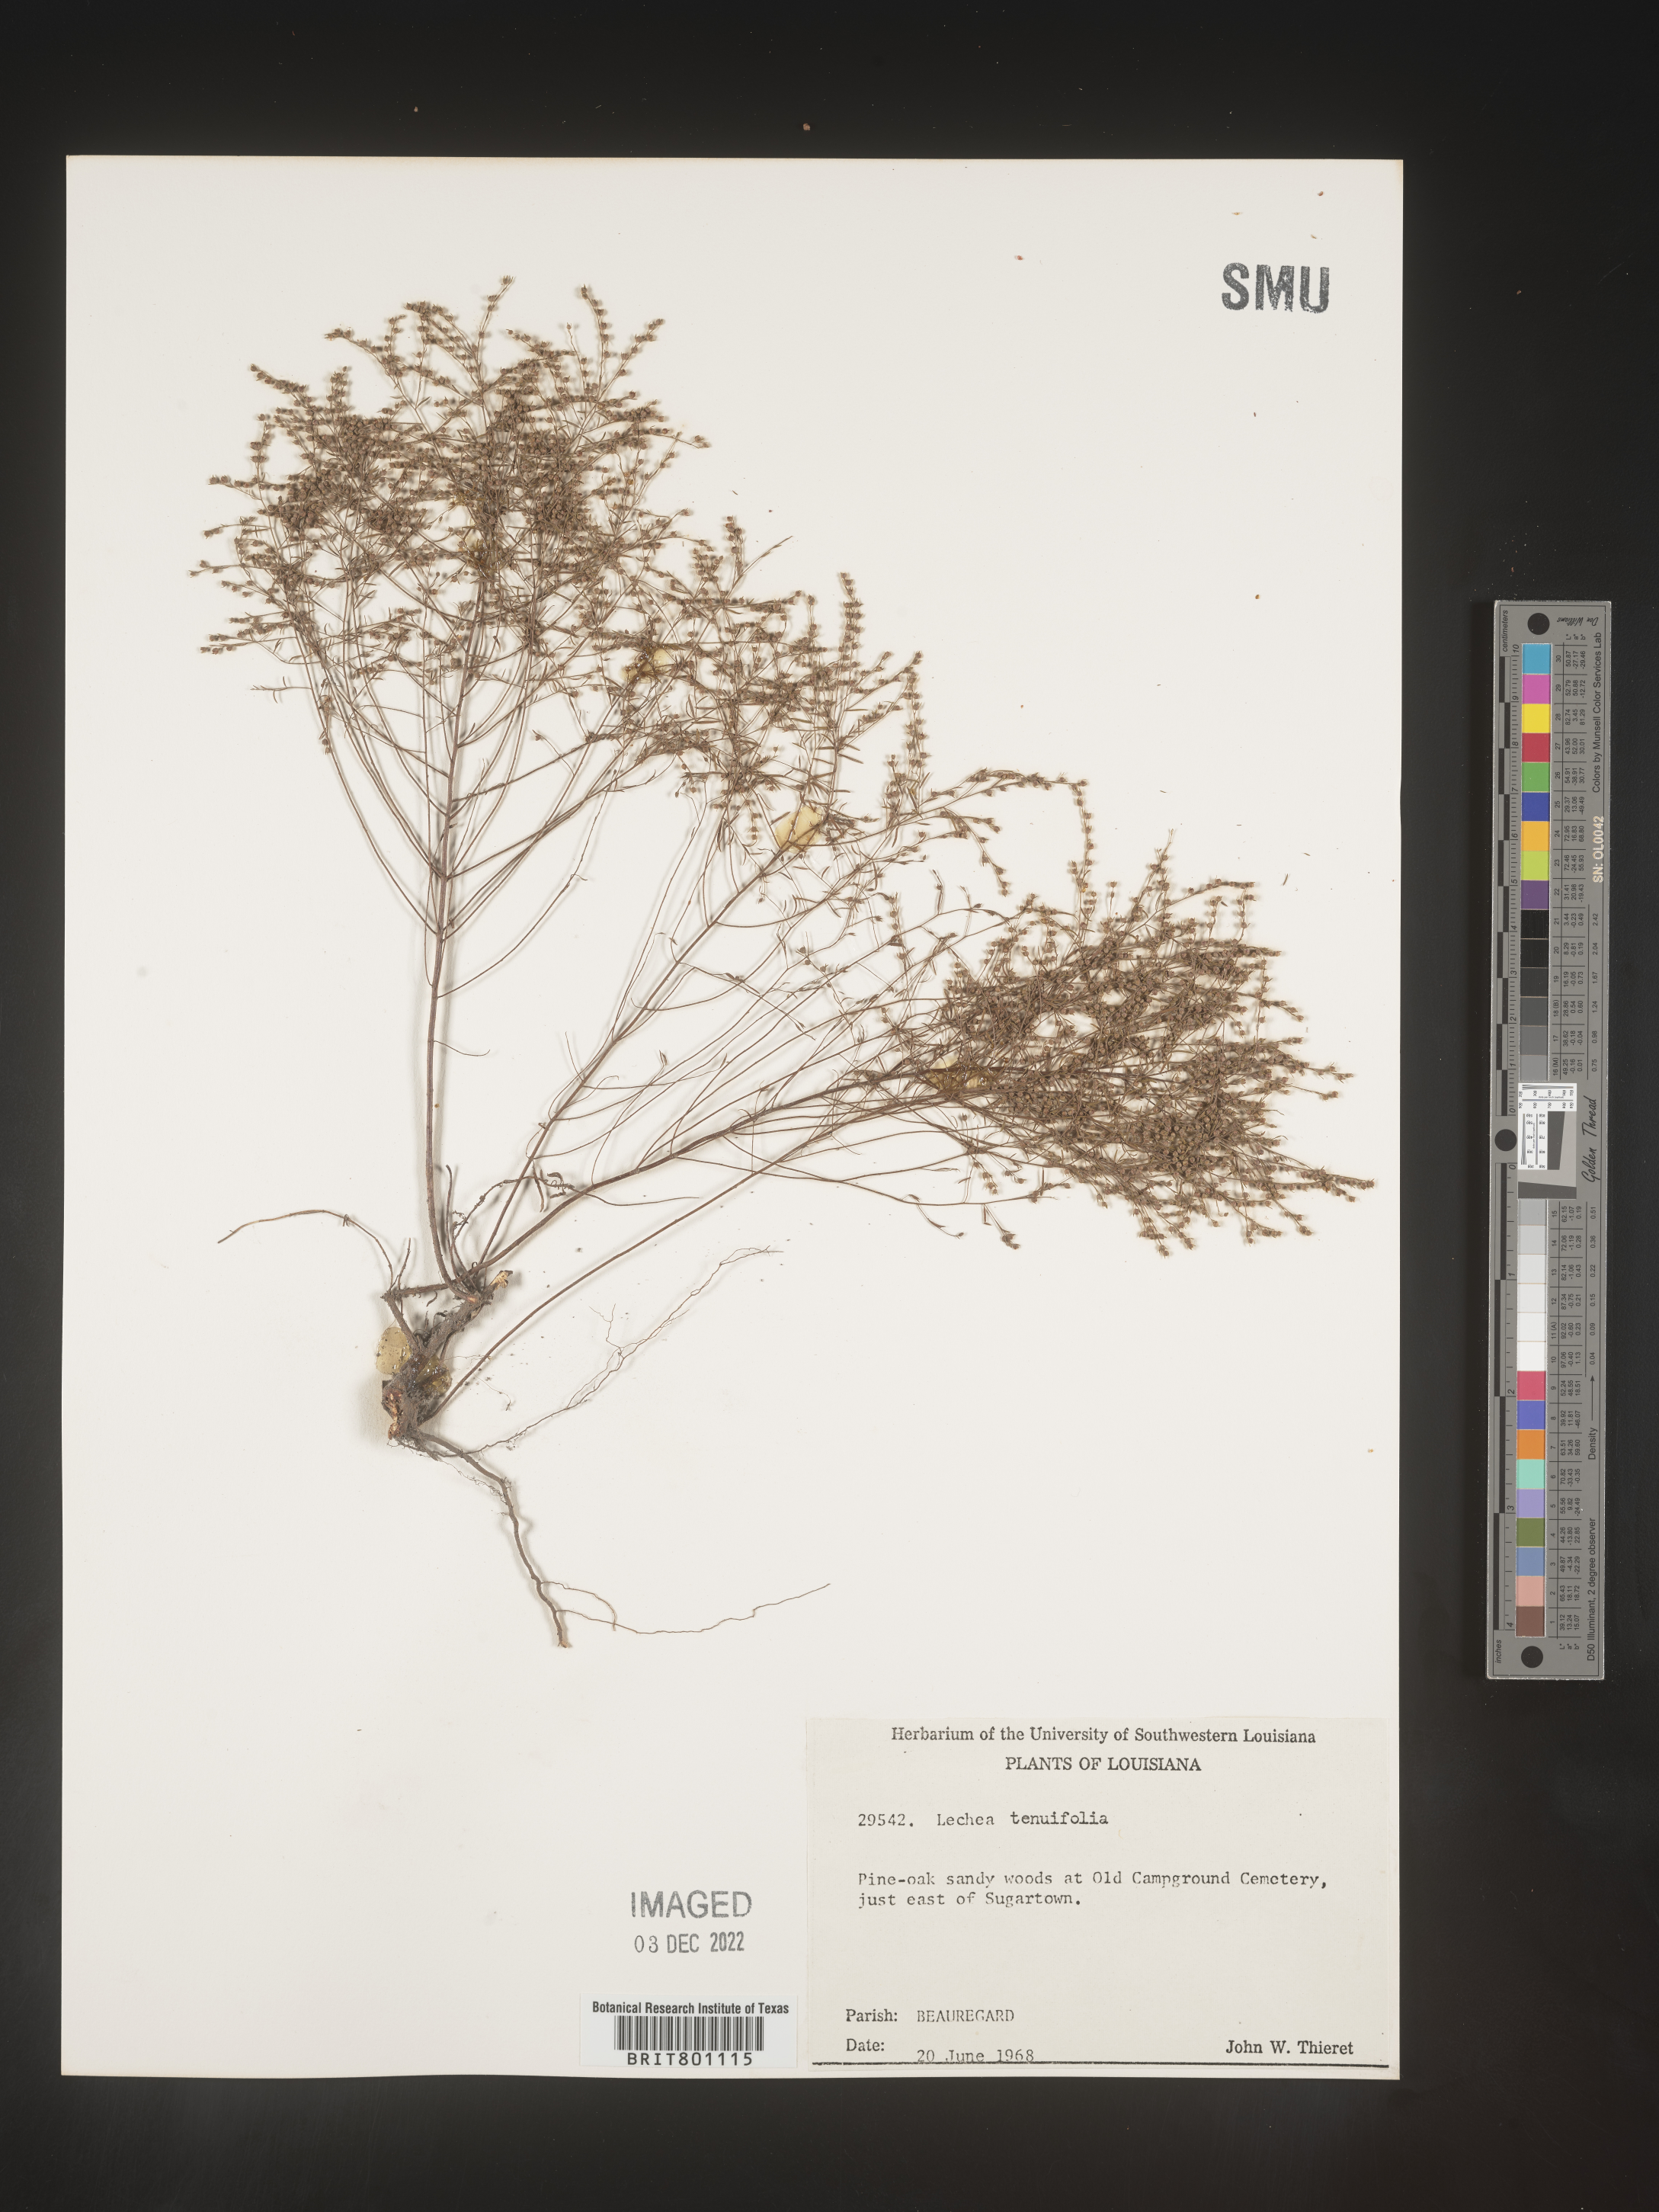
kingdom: Plantae
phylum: Tracheophyta
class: Magnoliopsida
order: Malvales
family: Cistaceae
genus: Lechea
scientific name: Lechea tenuifolia
